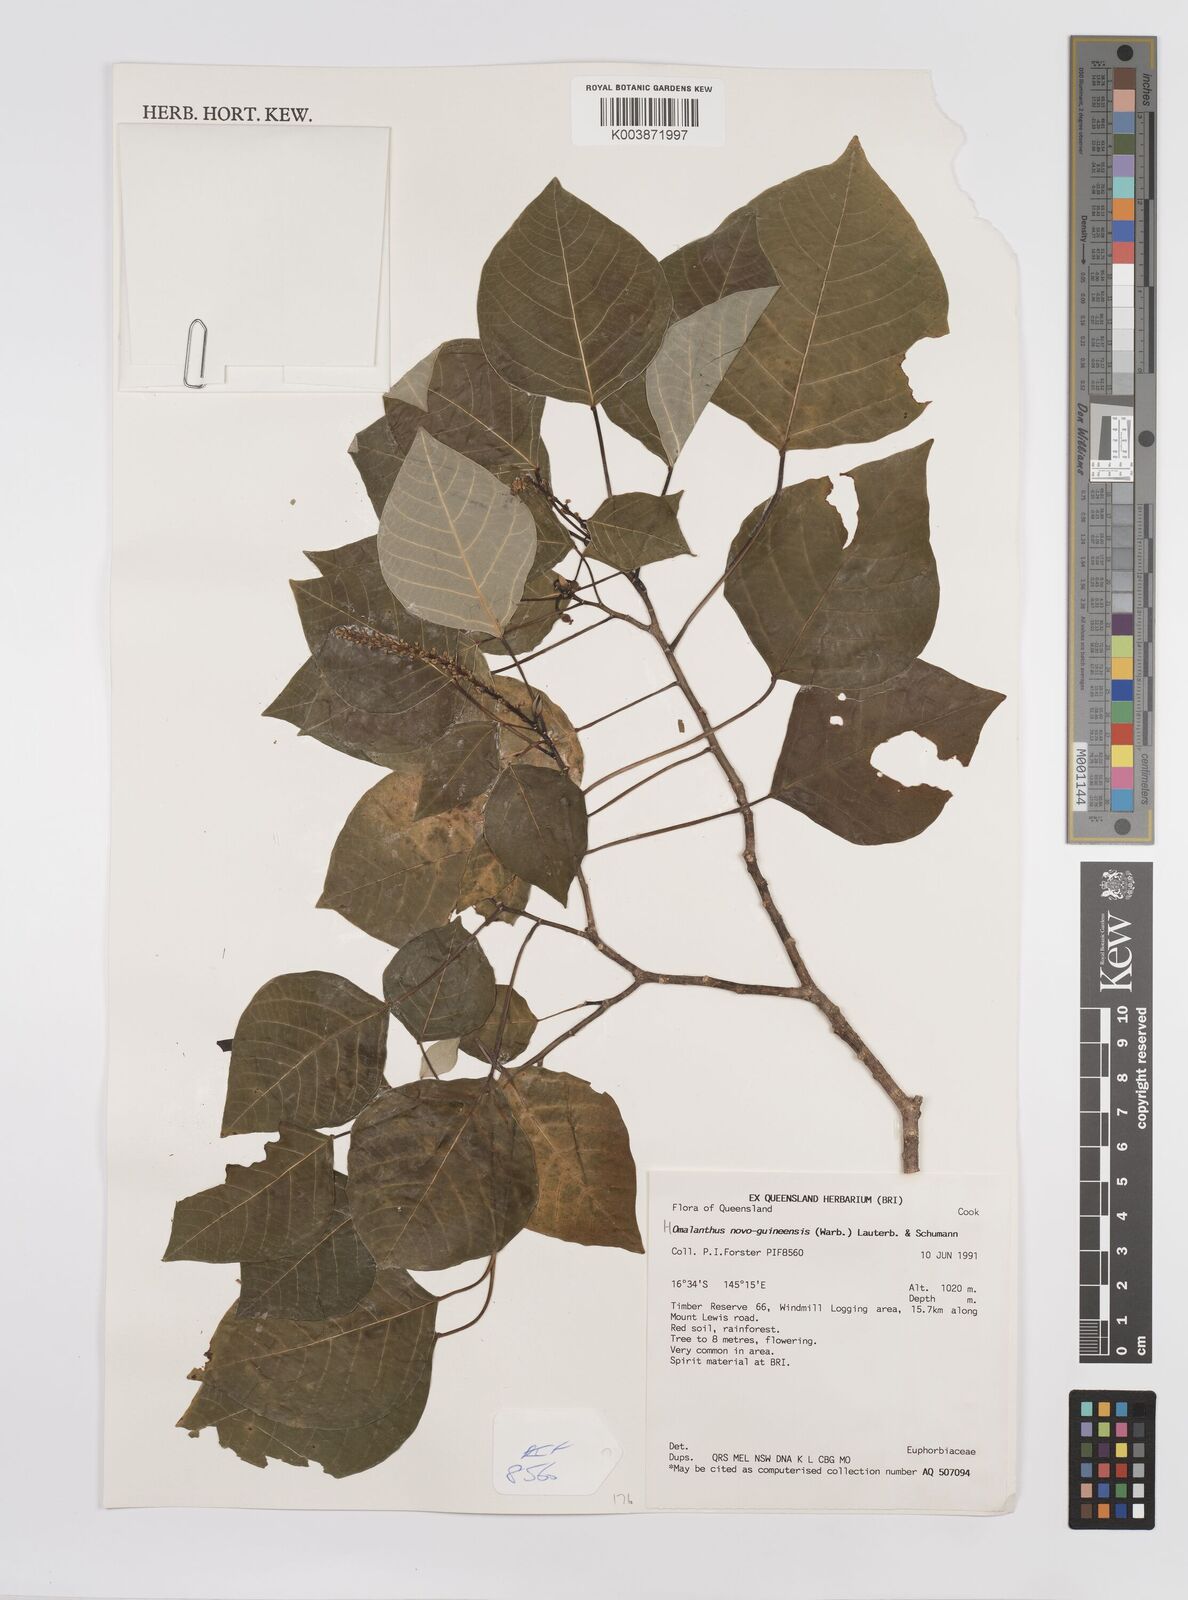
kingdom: Plantae
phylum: Tracheophyta
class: Magnoliopsida
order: Malpighiales
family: Euphorbiaceae
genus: Homalanthus
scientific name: Homalanthus novoguineensis
